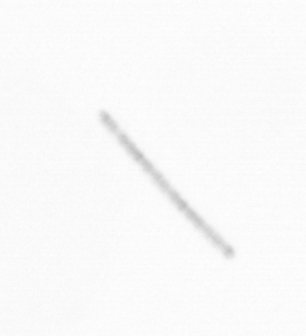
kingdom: Chromista
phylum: Ochrophyta
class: Bacillariophyceae
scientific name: Bacillariophyceae
